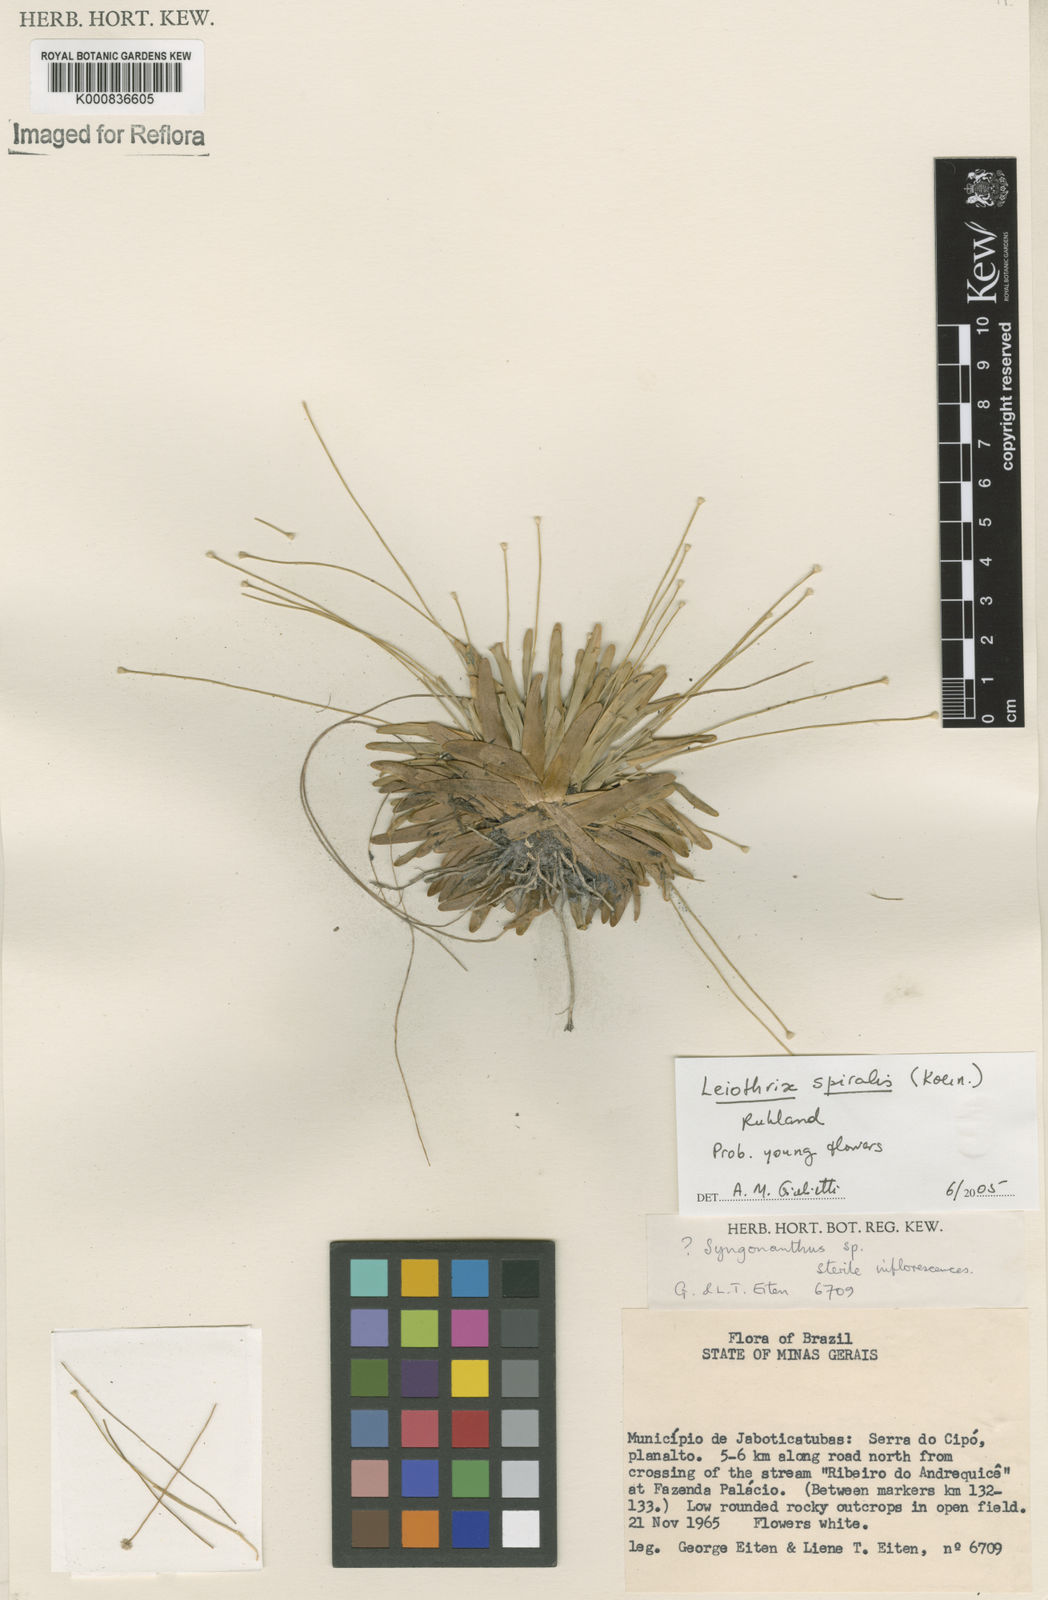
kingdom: Plantae
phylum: Tracheophyta
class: Liliopsida
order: Poales
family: Eriocaulaceae
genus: Leiothrix
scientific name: Leiothrix spiralis
